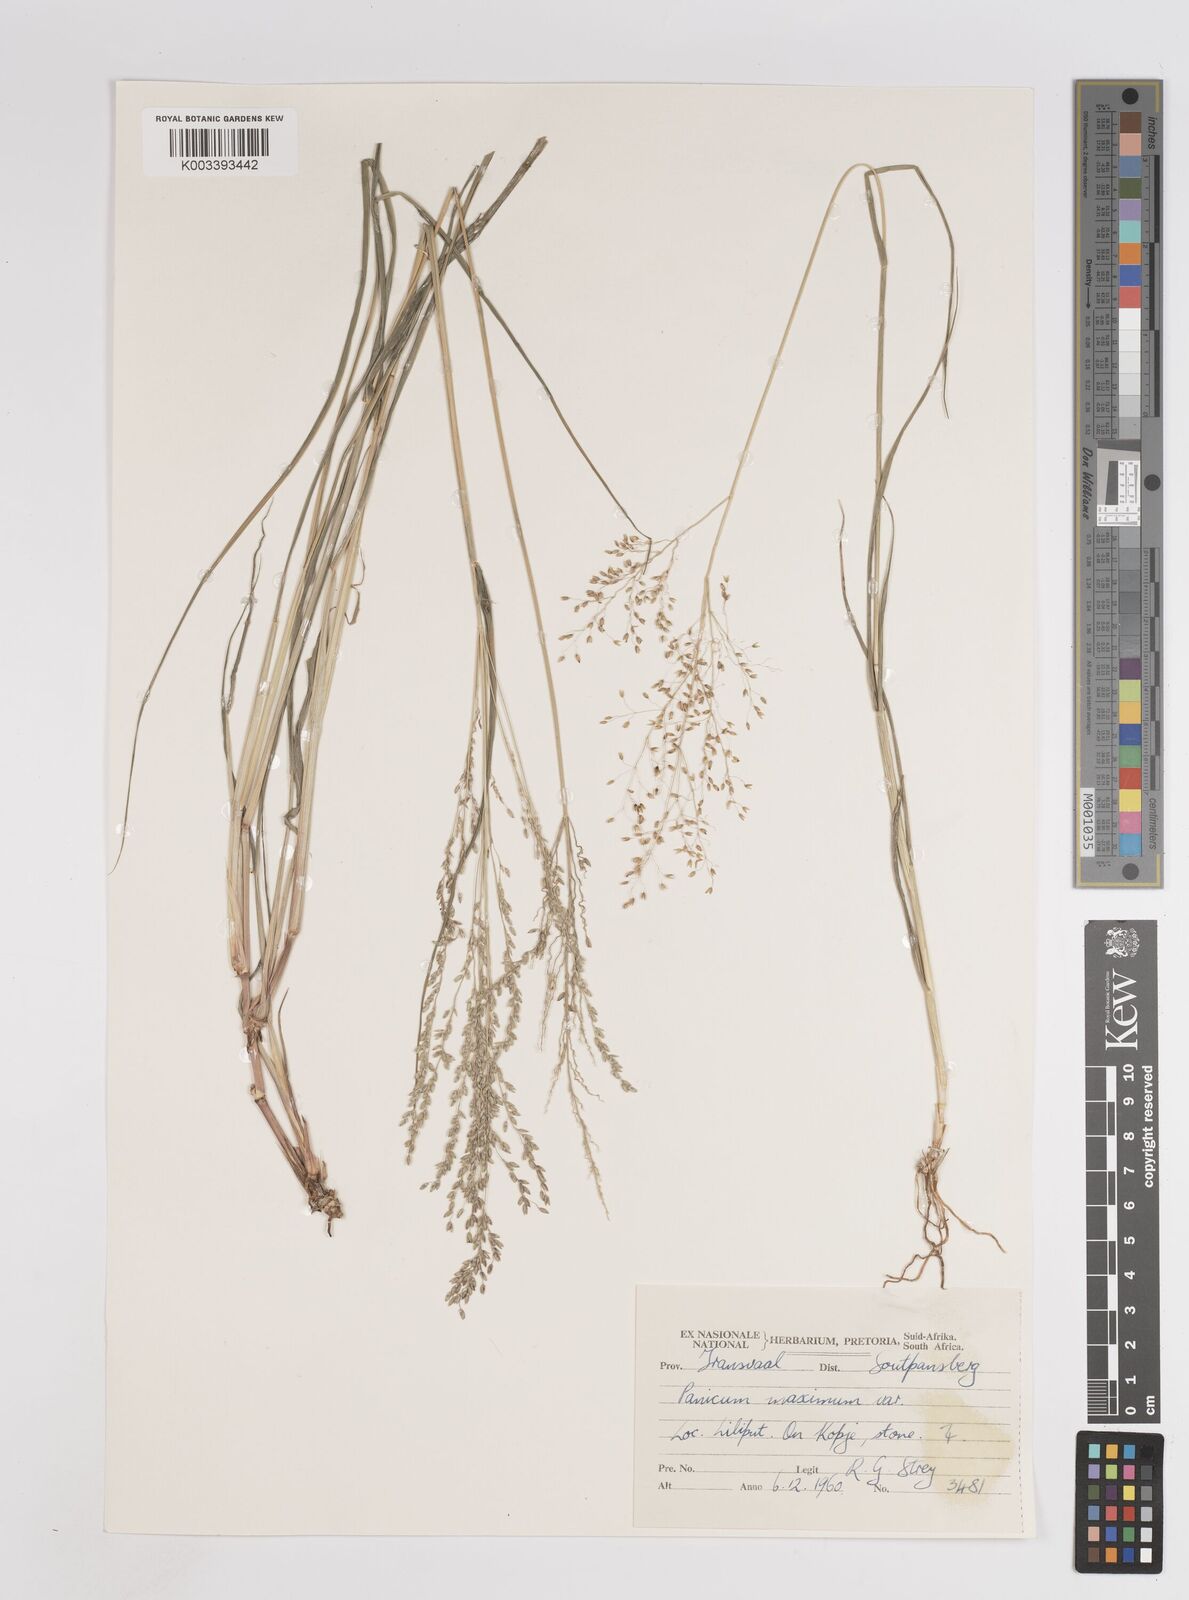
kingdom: Plantae
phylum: Tracheophyta
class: Liliopsida
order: Poales
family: Poaceae
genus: Megathyrsus
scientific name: Megathyrsus maximus
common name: Guineagrass
